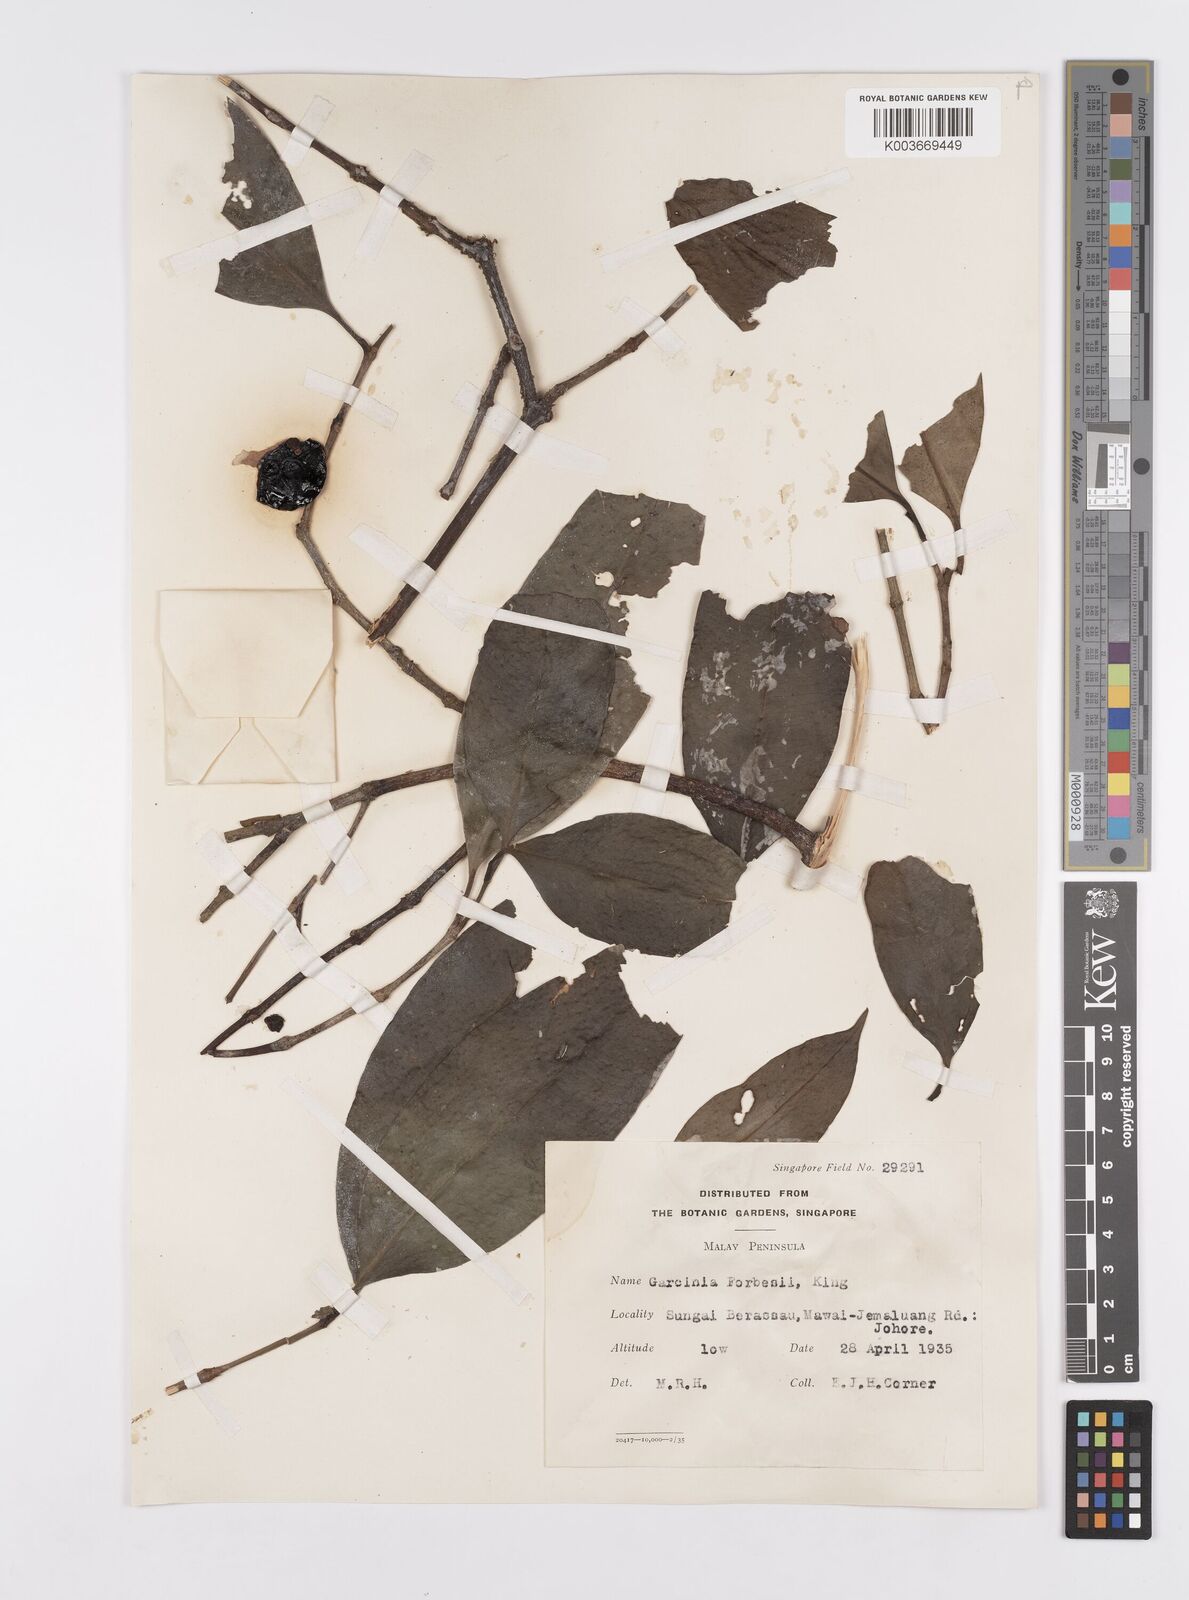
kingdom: Plantae
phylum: Tracheophyta
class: Magnoliopsida
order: Malpighiales
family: Clusiaceae
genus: Garcinia
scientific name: Garcinia forbesii
